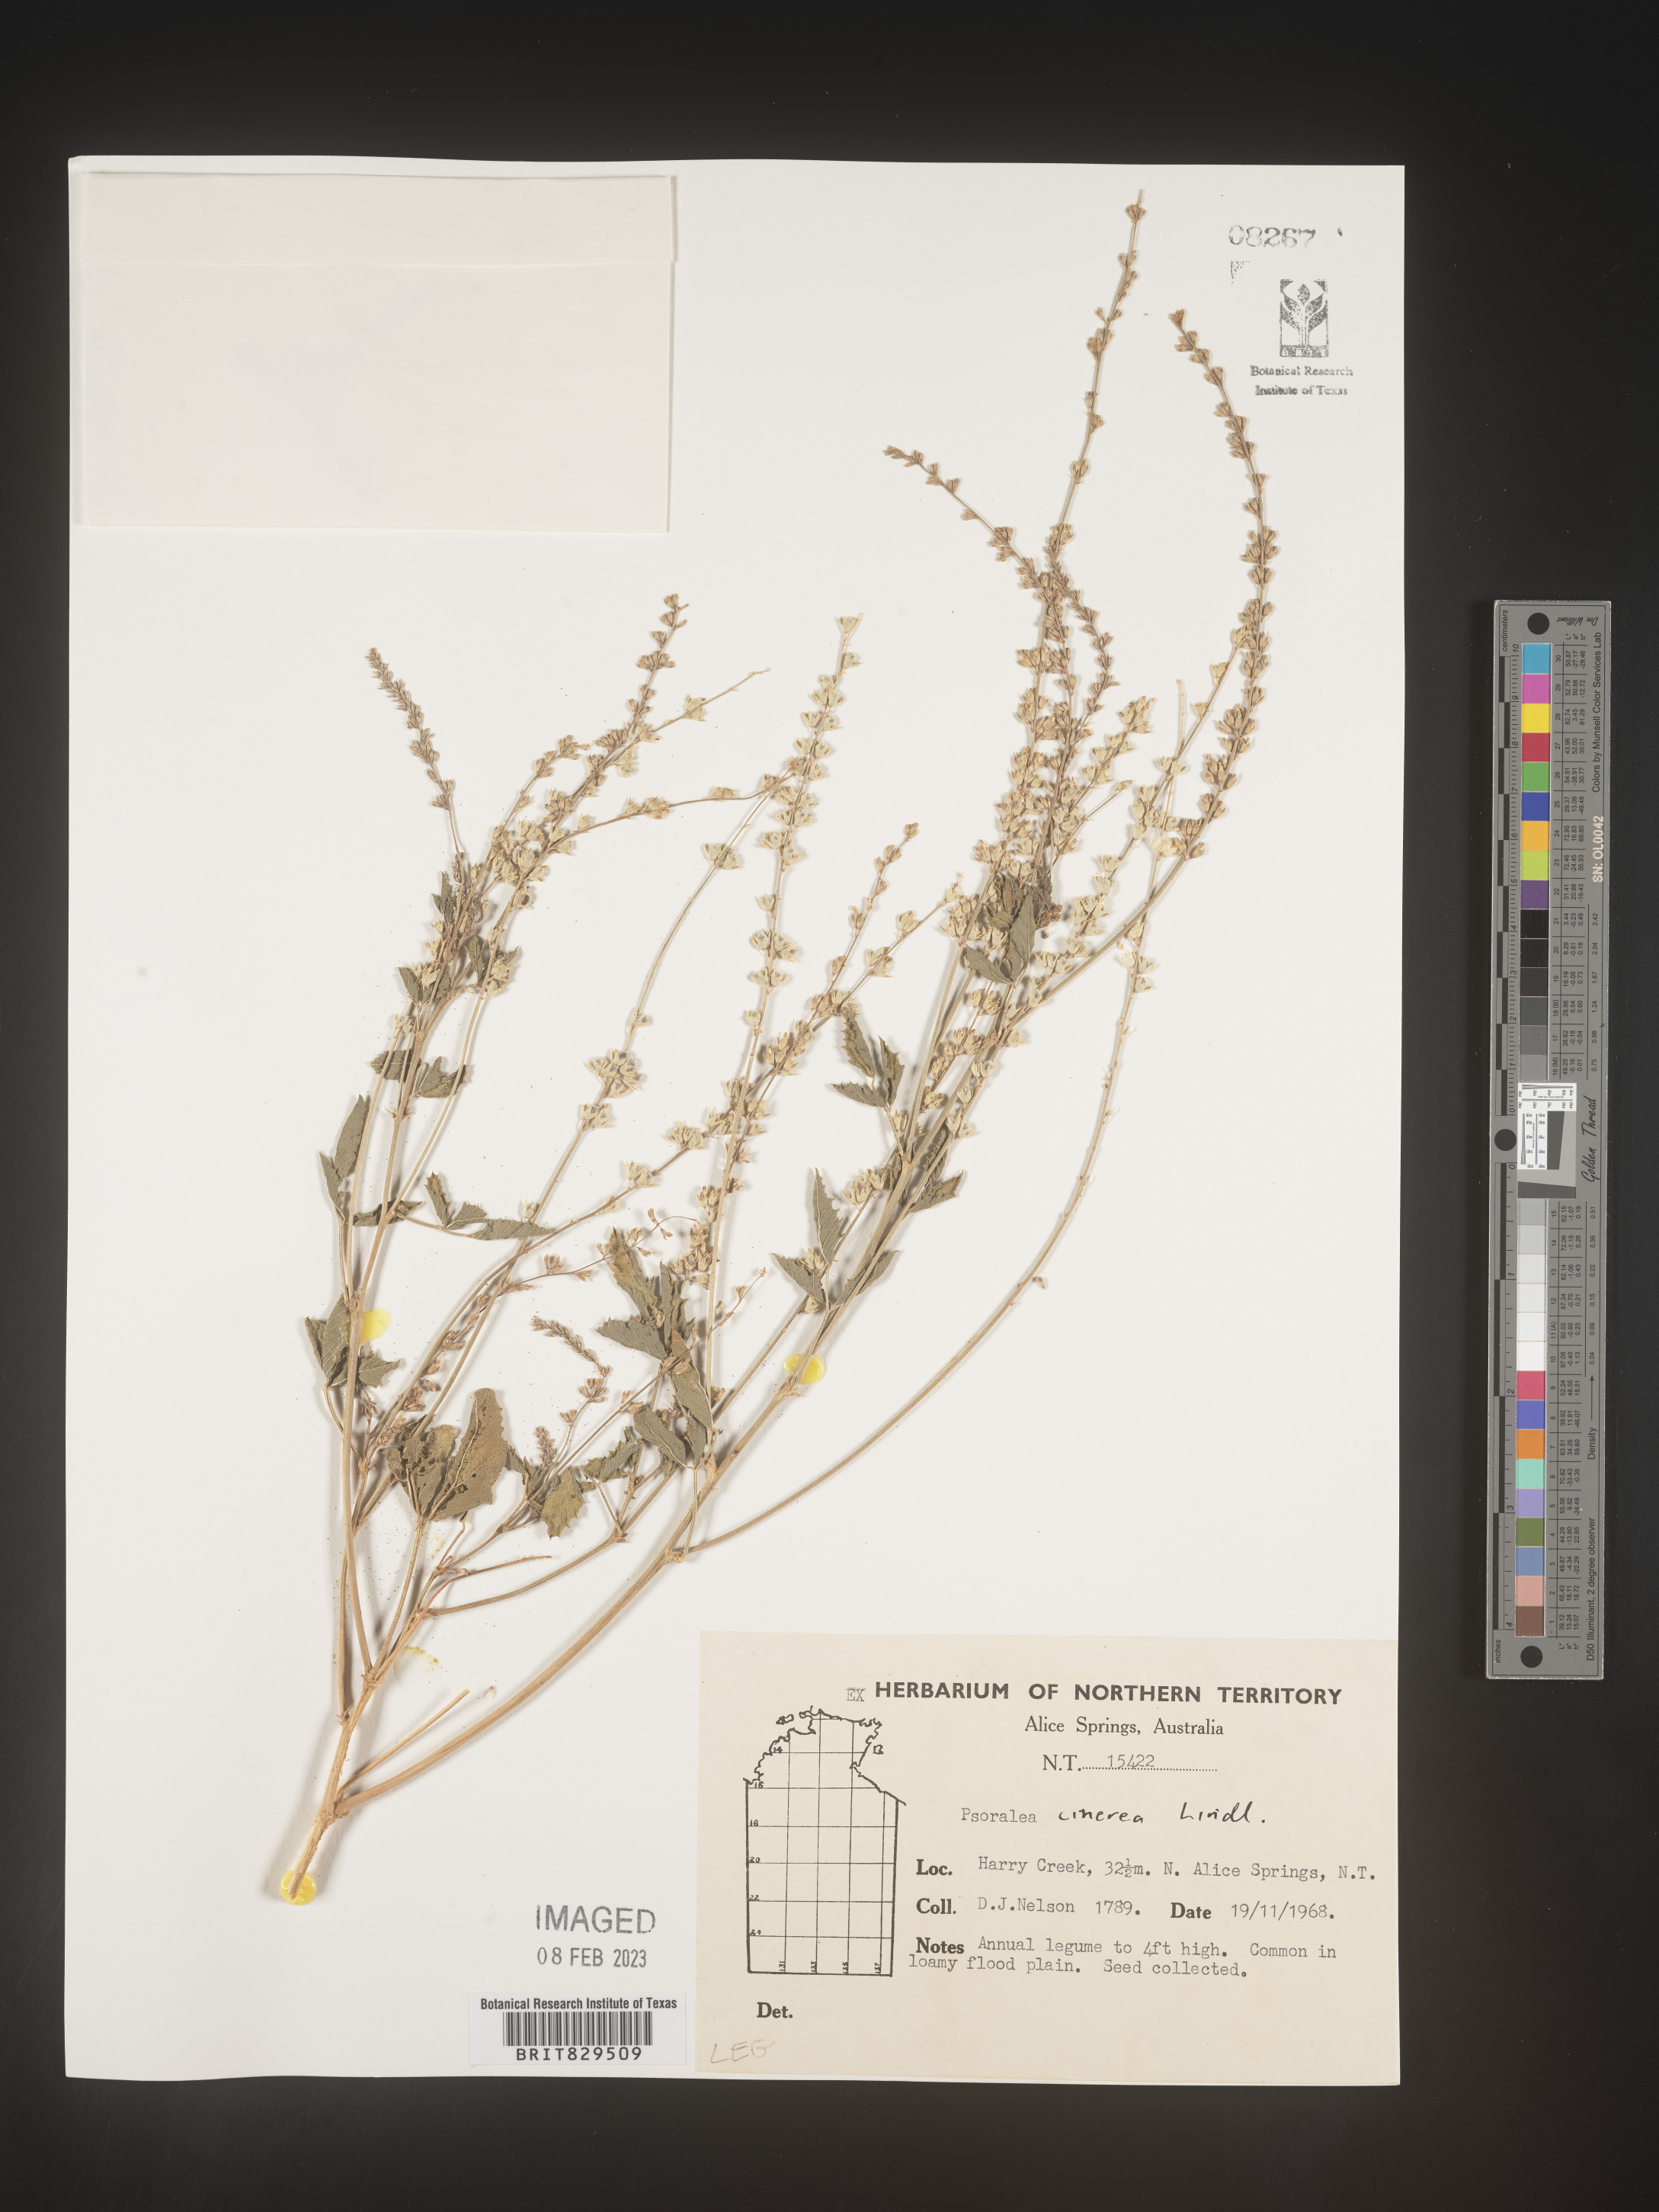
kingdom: Plantae
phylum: Tracheophyta
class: Magnoliopsida
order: Fabales
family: Fabaceae
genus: Psoralea
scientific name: Psoralea
